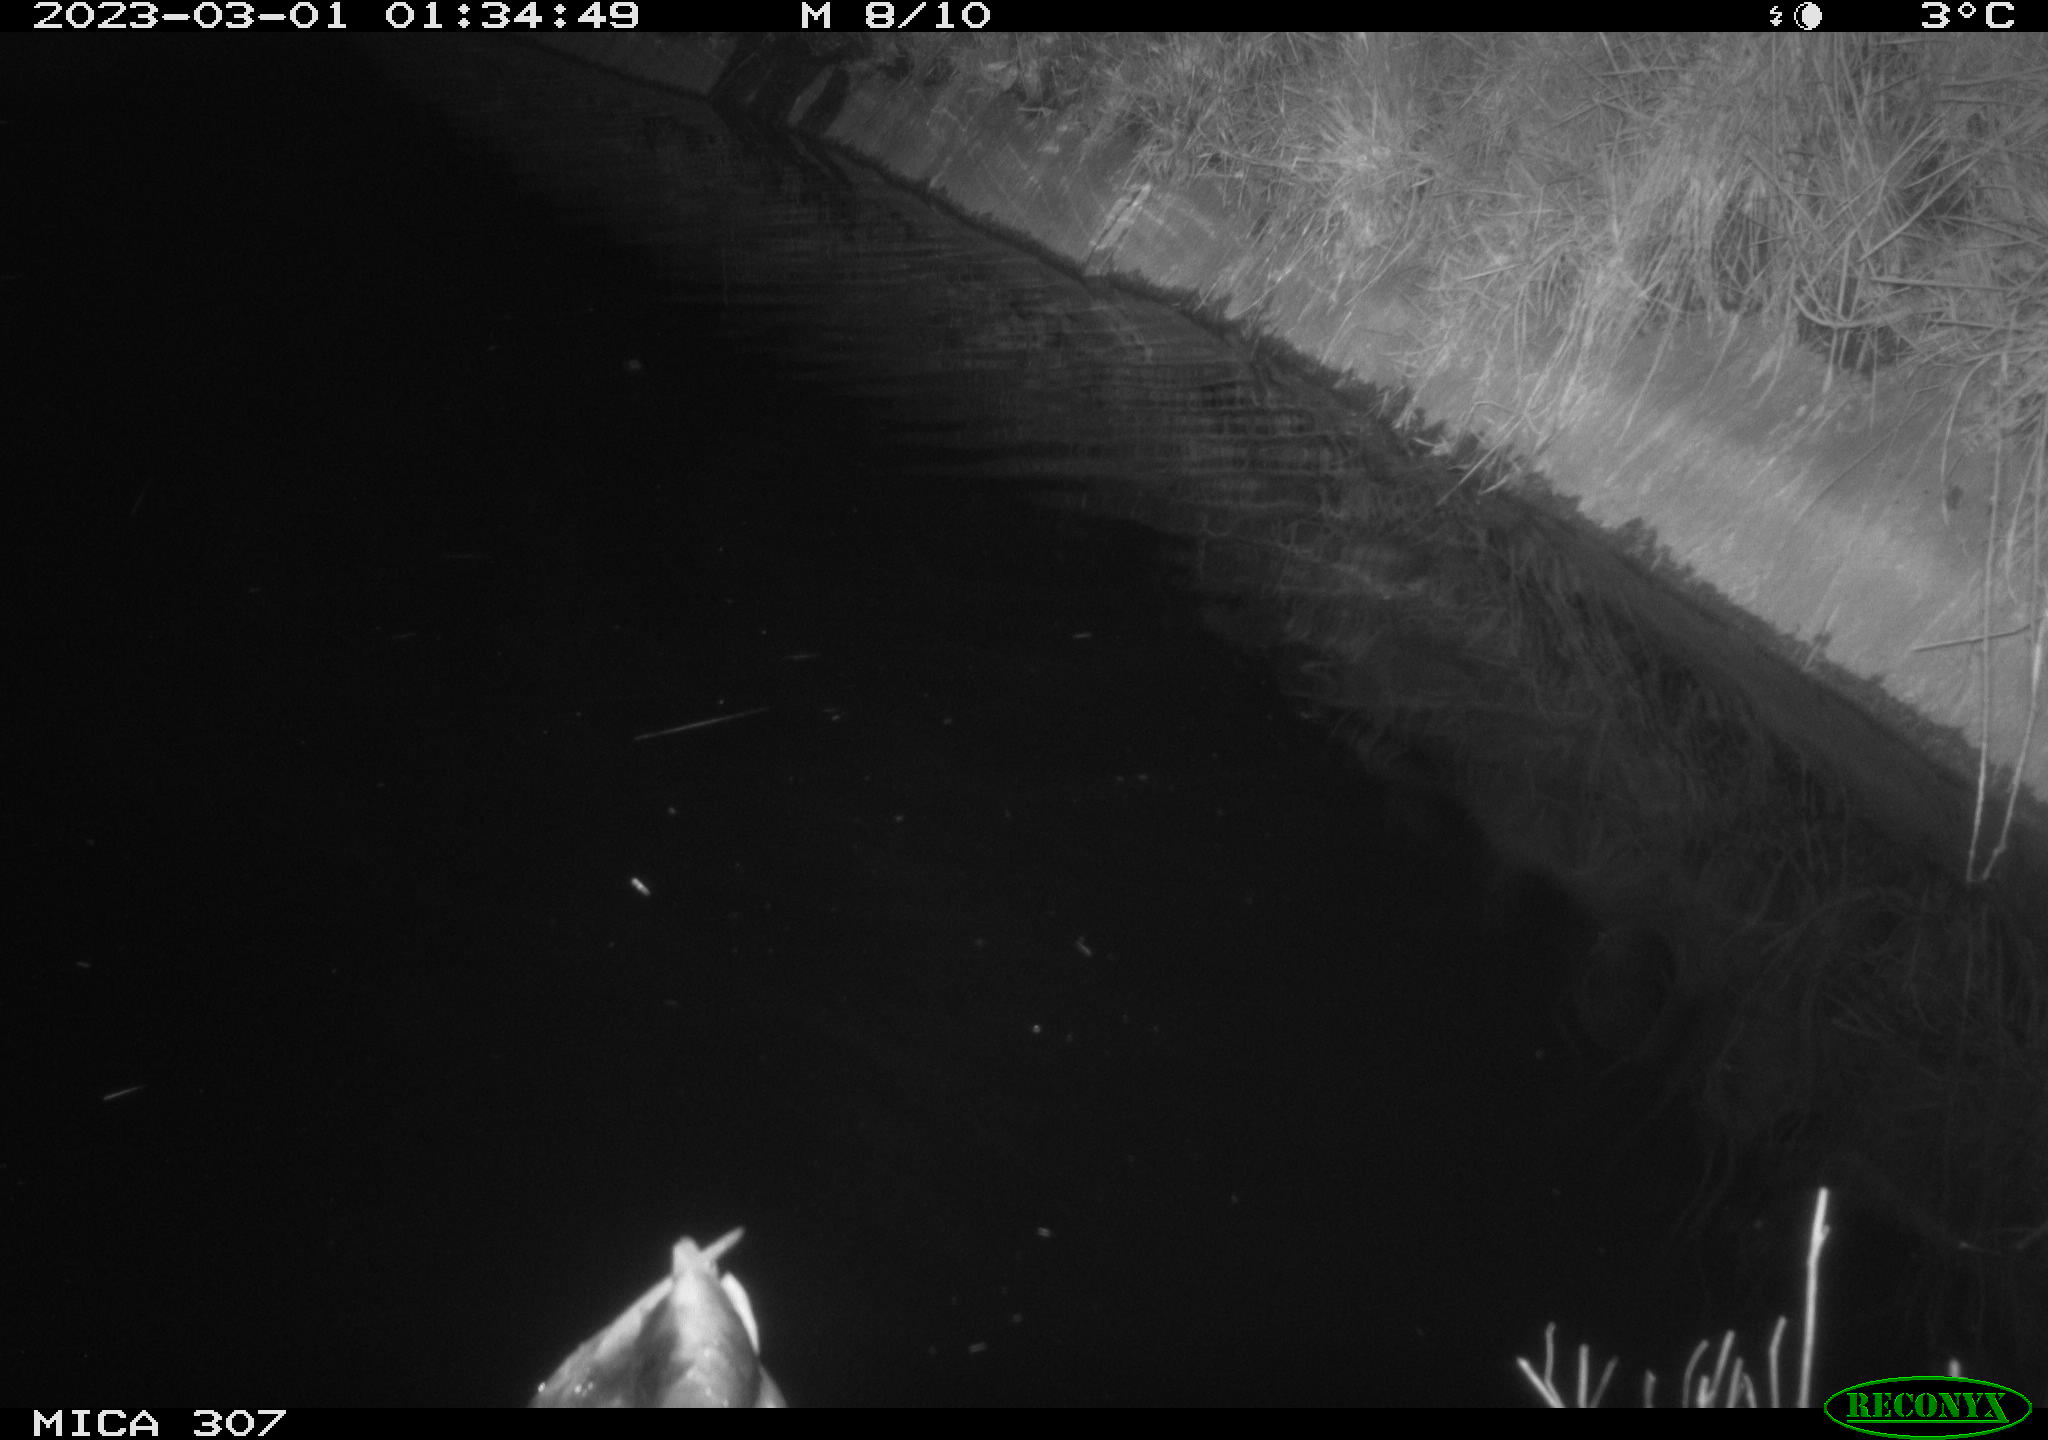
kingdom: Animalia
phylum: Chordata
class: Aves
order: Anseriformes
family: Anatidae
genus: Anas
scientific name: Anas
